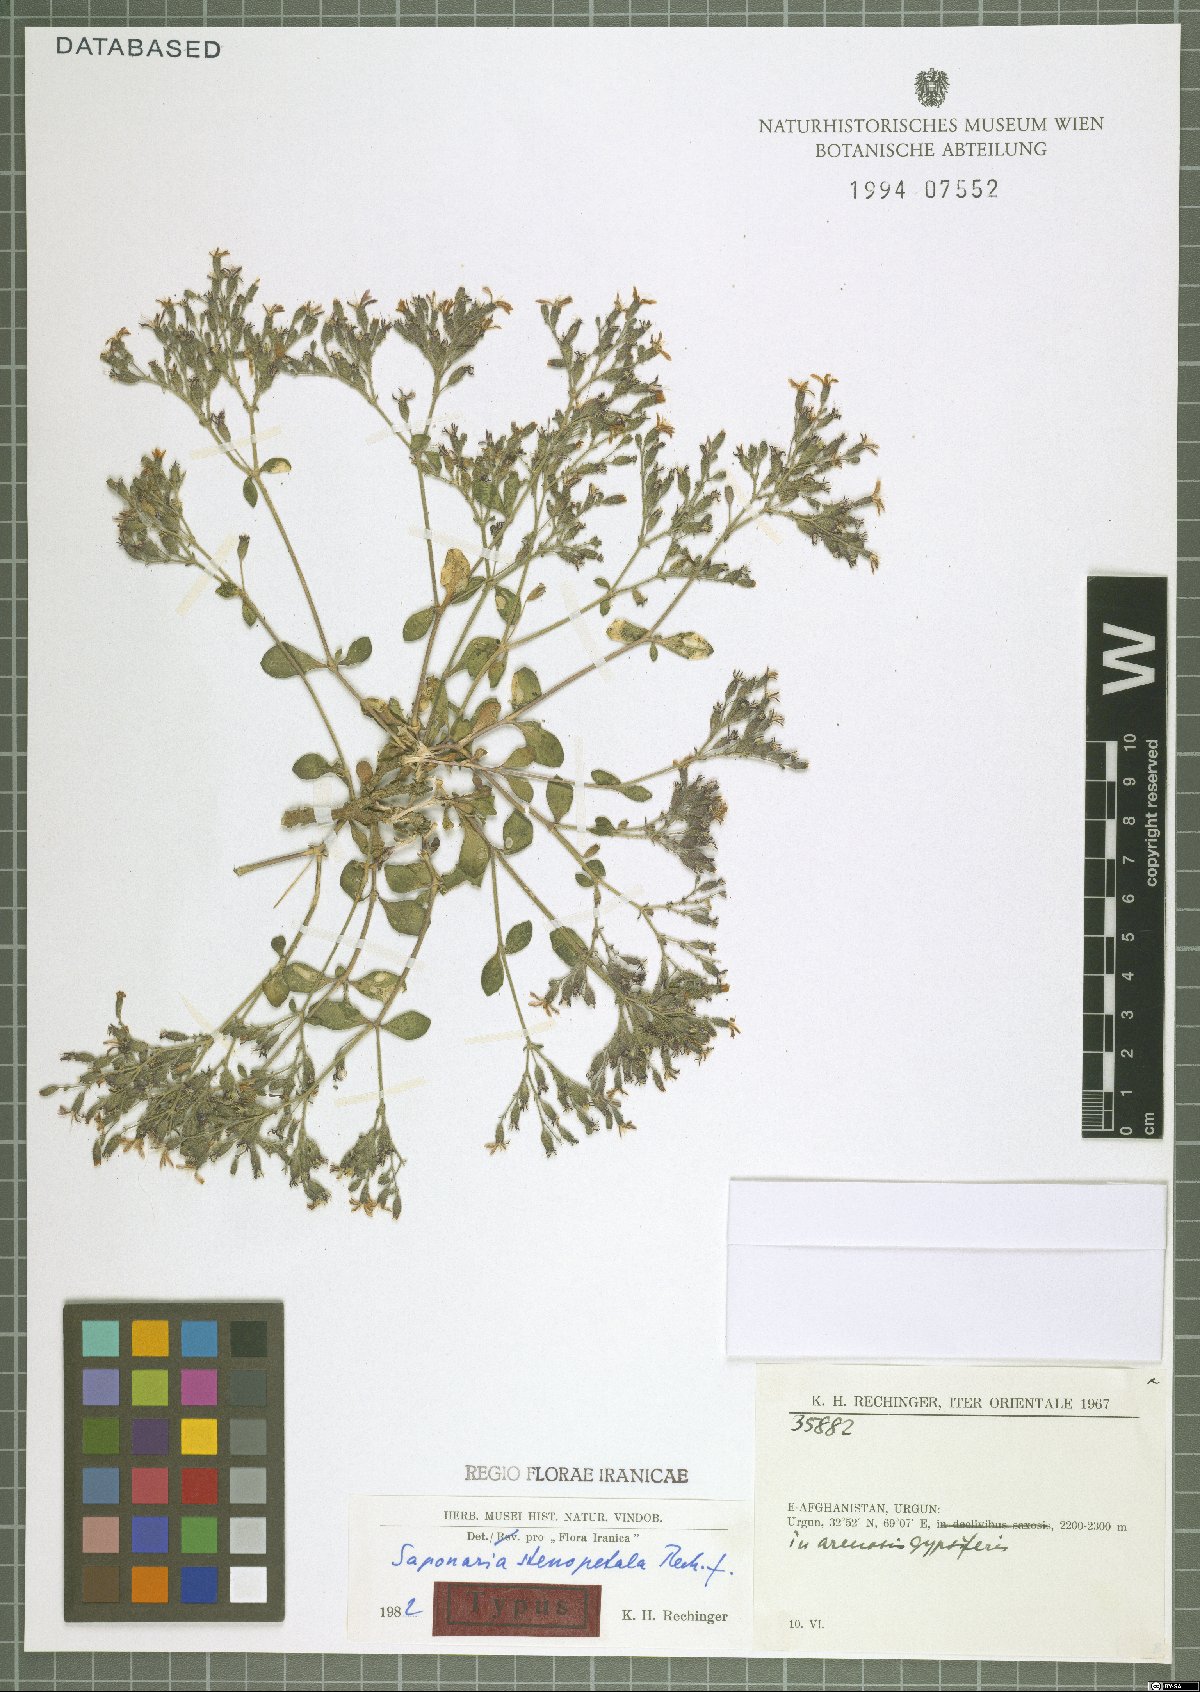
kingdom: Plantae
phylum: Tracheophyta
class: Magnoliopsida
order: Caryophyllales
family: Caryophyllaceae
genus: Saponaria
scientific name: Saponaria stenopetala
